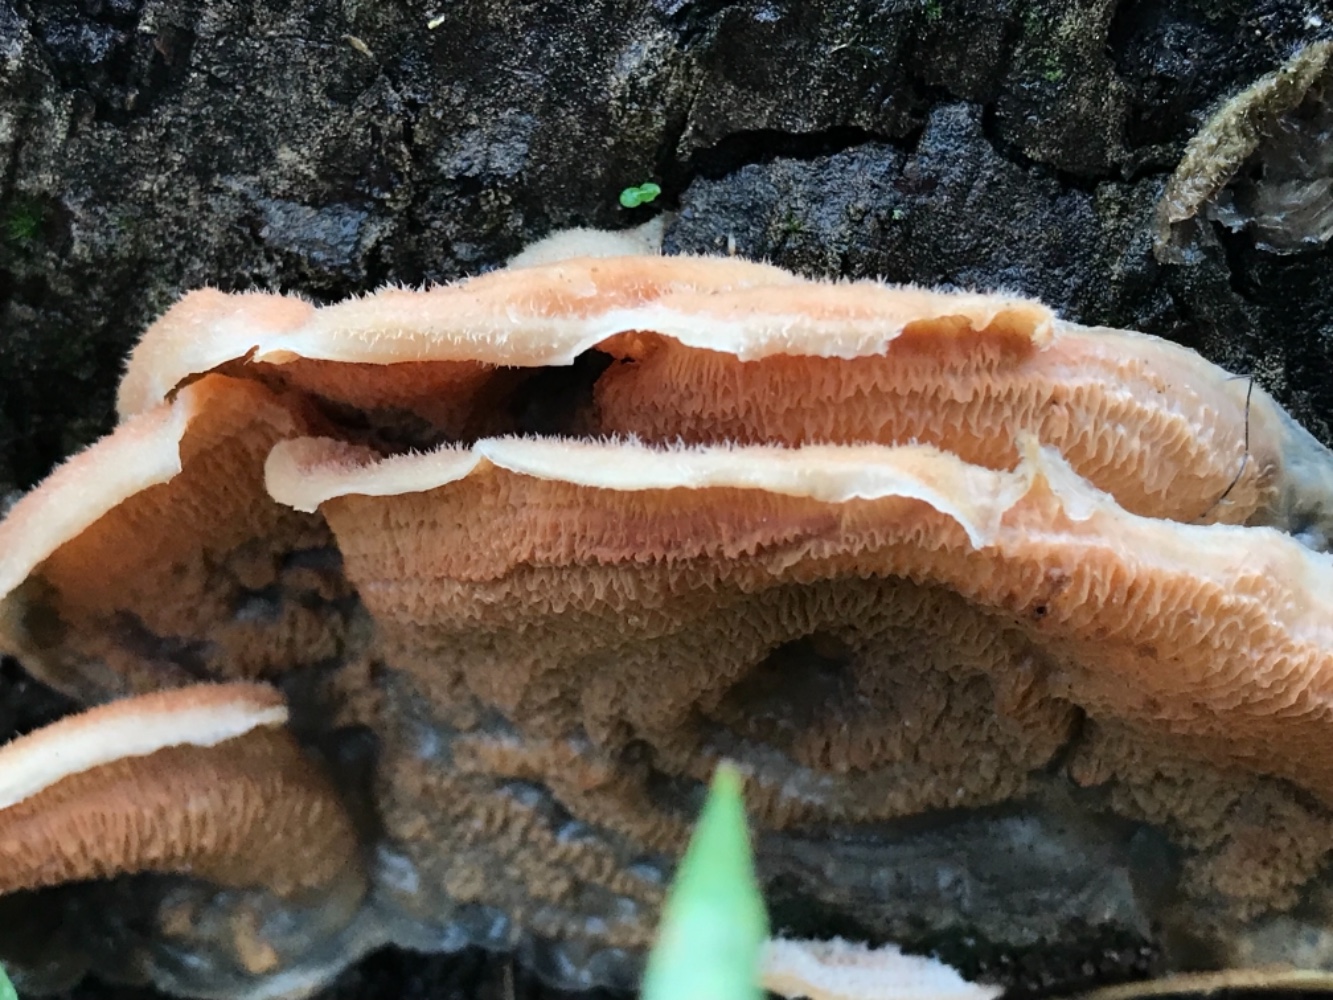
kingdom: Fungi
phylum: Basidiomycota
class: Agaricomycetes
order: Polyporales
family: Meruliaceae
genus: Phlebia
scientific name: Phlebia tremellosa
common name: bævrende åresvamp
